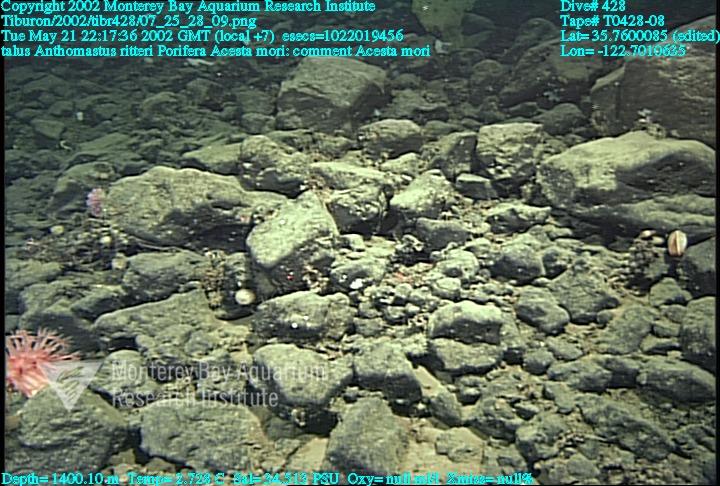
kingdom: Animalia
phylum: Porifera
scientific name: Porifera
